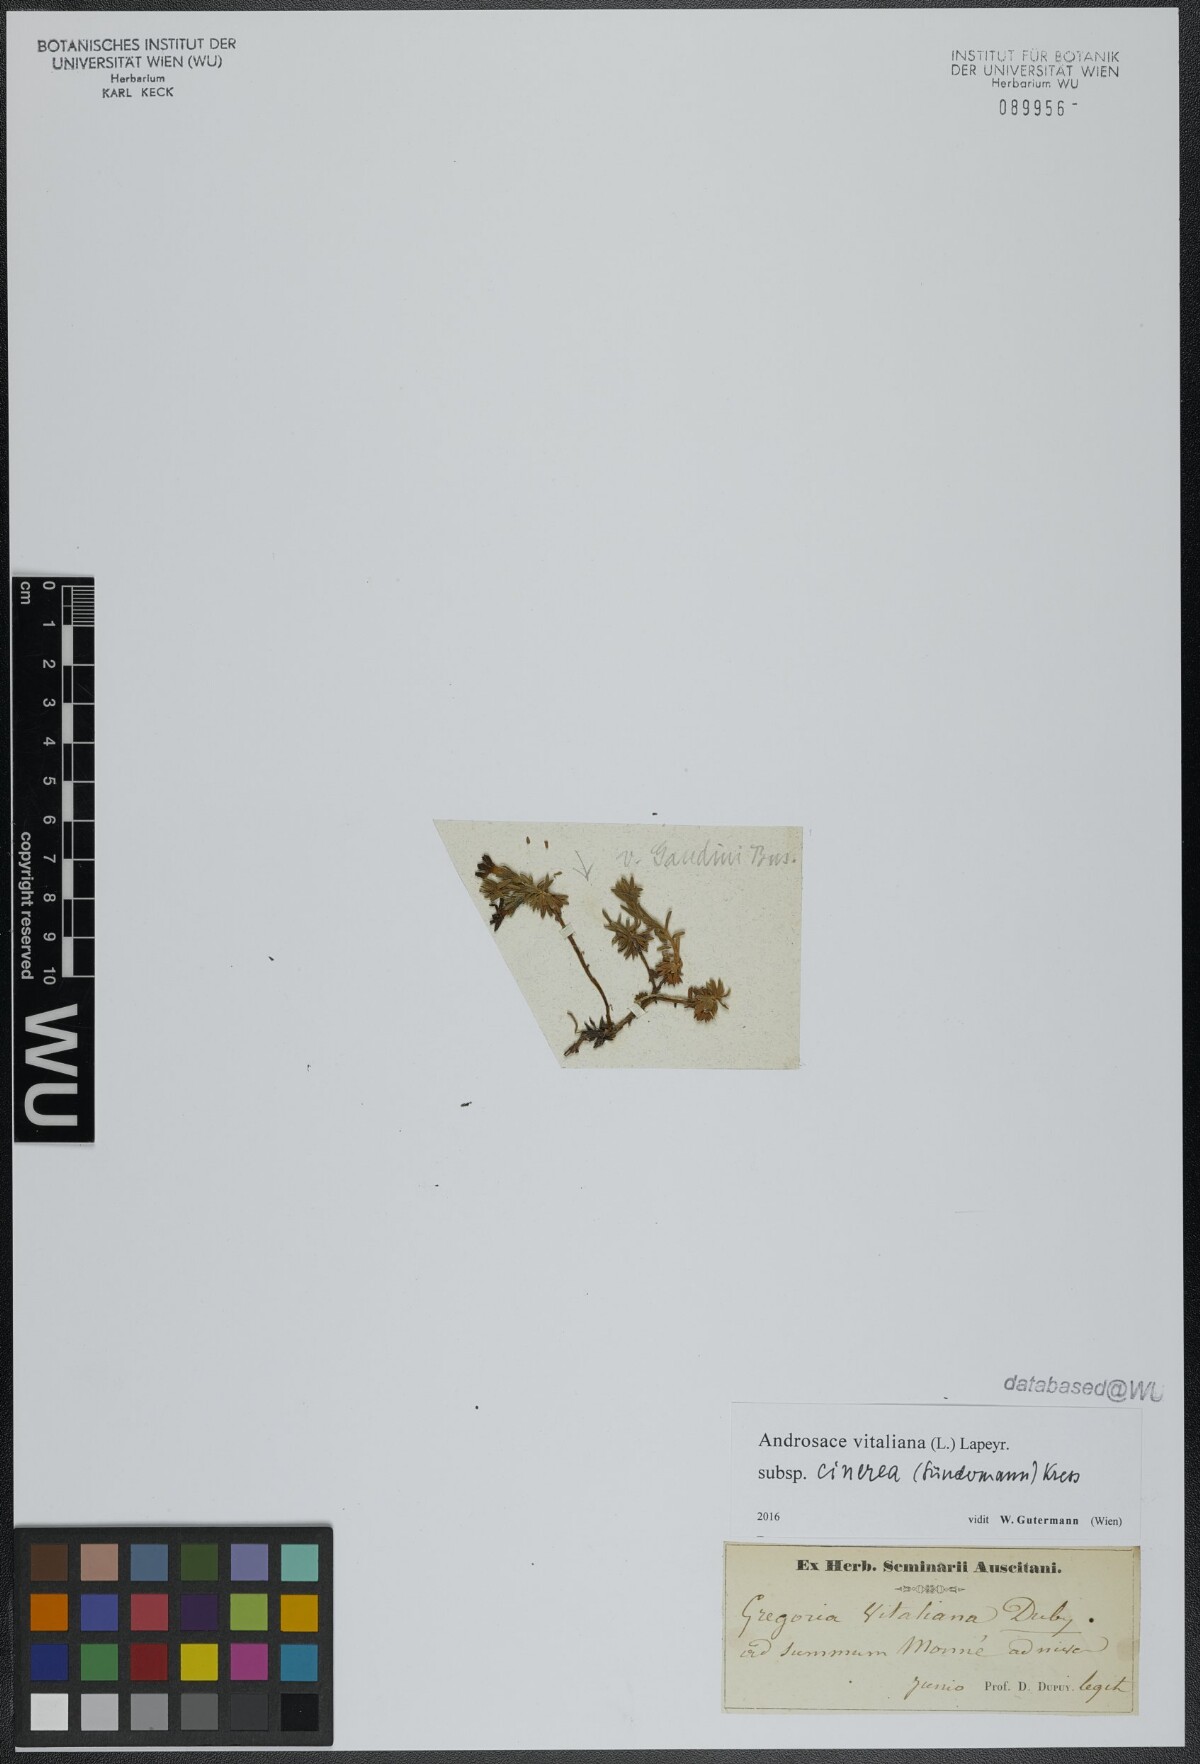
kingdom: Plantae
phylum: Tracheophyta
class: Magnoliopsida
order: Ericales
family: Primulaceae
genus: Androsace
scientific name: Androsace vitaliana
